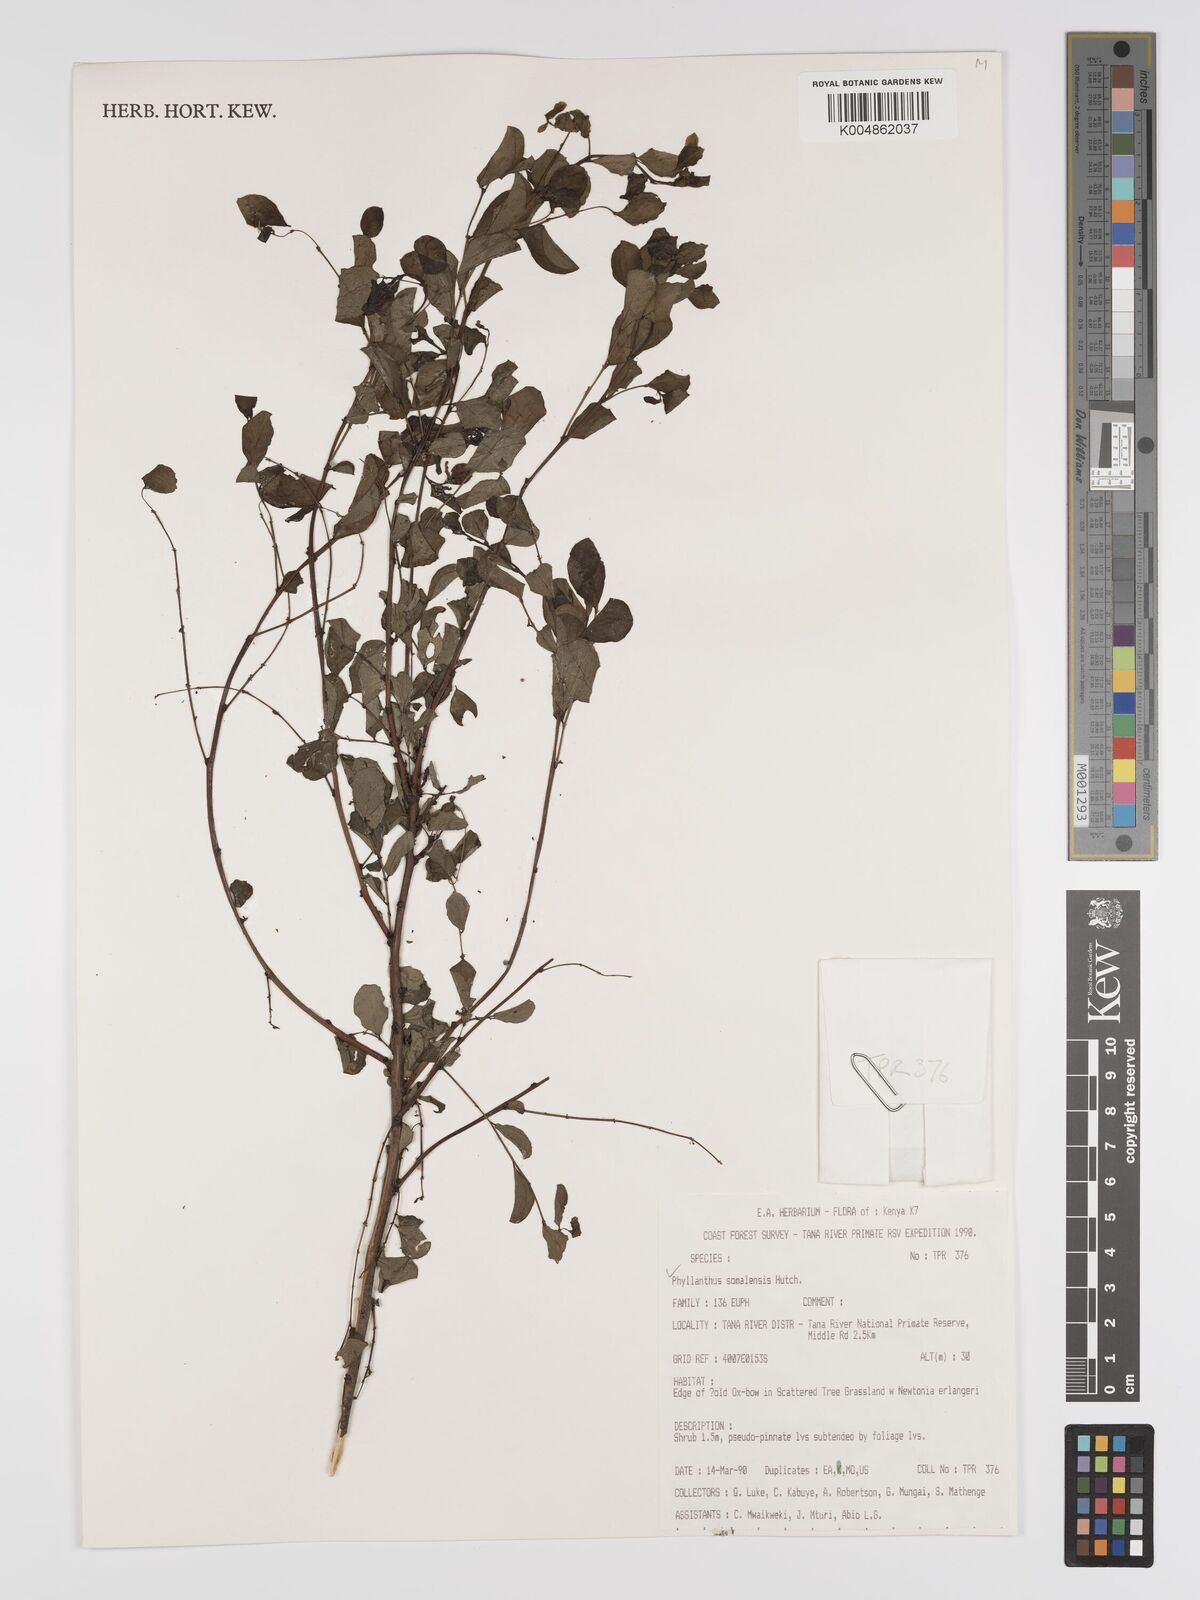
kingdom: Plantae
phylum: Tracheophyta
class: Magnoliopsida
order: Malpighiales
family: Phyllanthaceae
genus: Phyllanthus
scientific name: Phyllanthus somalensis
